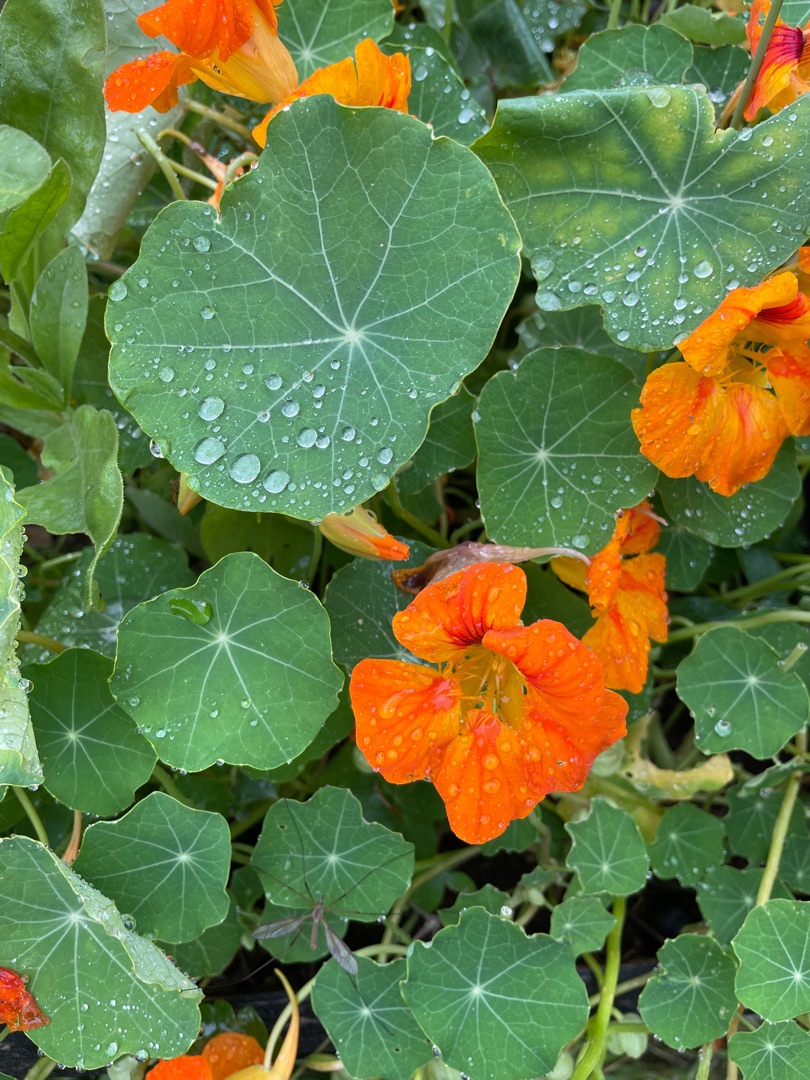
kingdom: Plantae
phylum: Tracheophyta
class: Magnoliopsida
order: Brassicales
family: Tropaeolaceae
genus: Tropaeolum
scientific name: Tropaeolum majus
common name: Blomsterkarse
